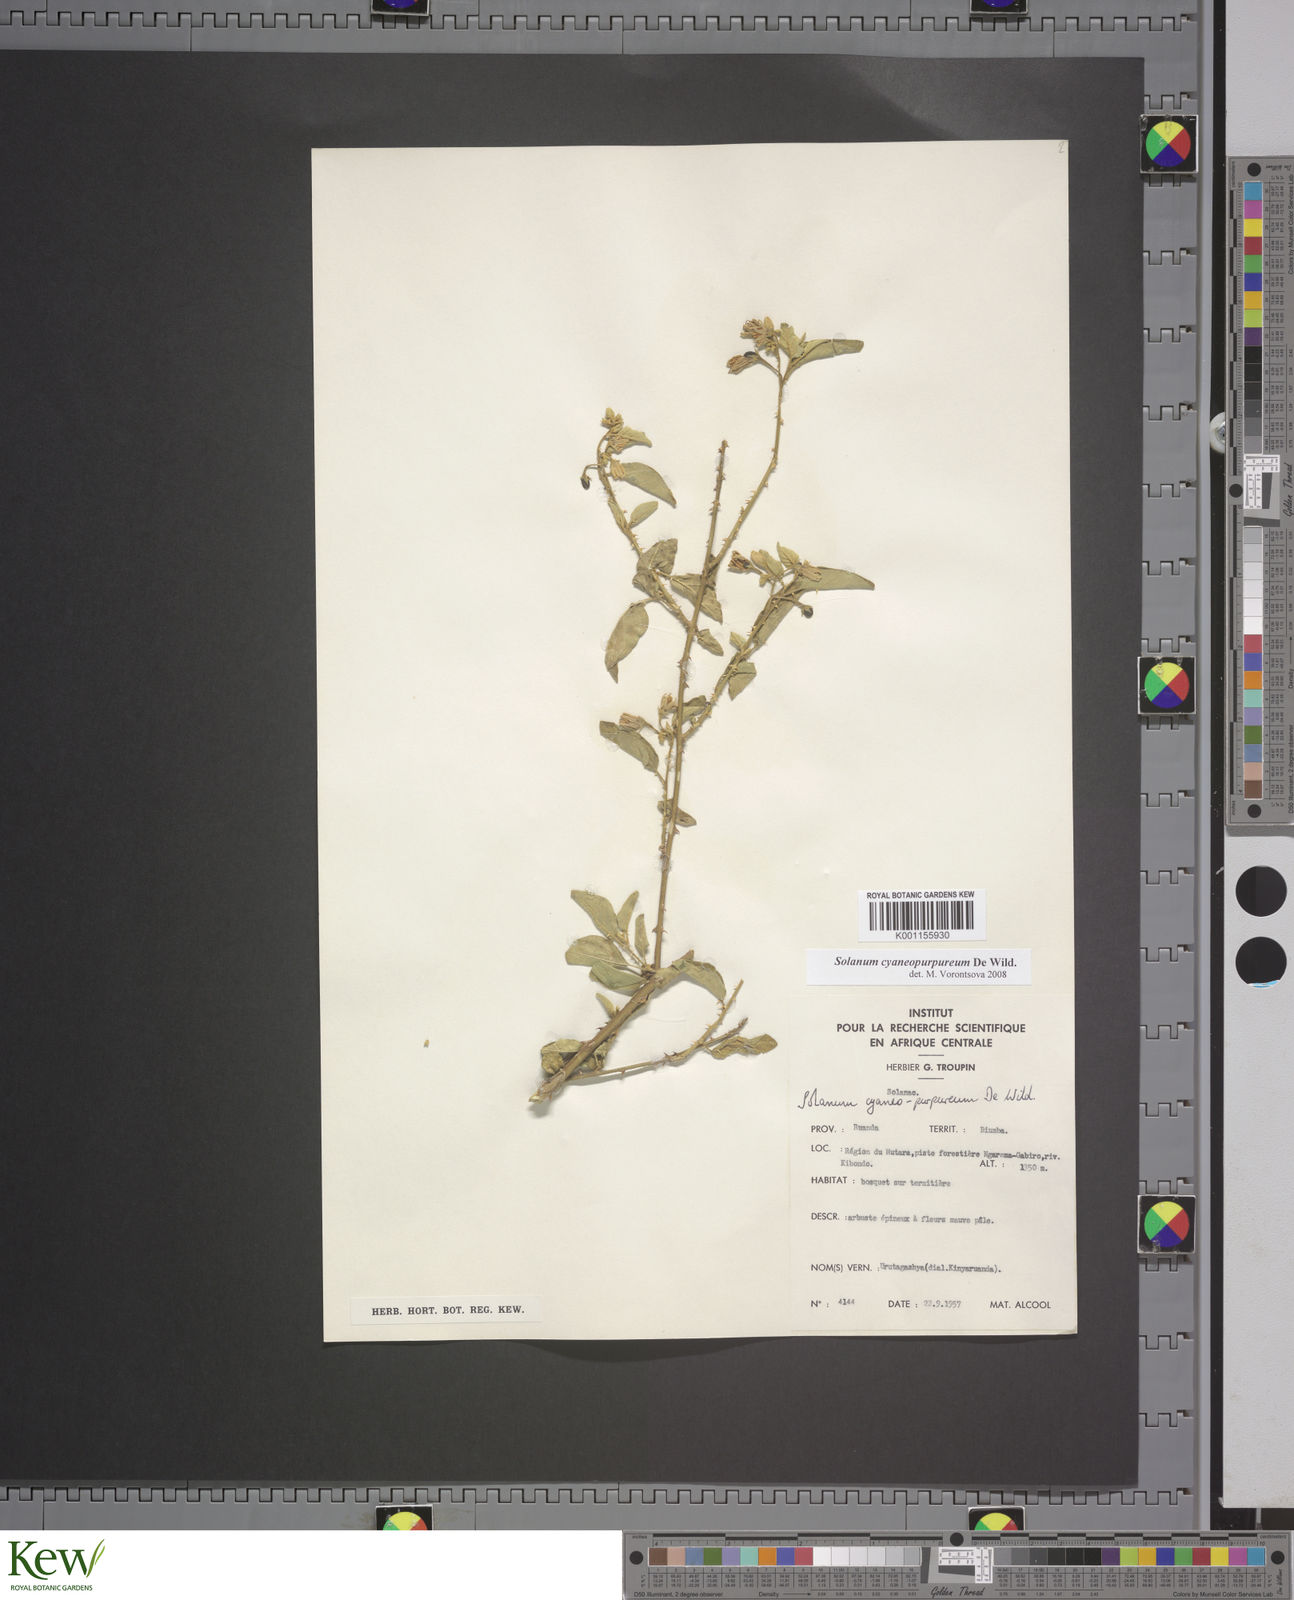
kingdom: Plantae
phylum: Tracheophyta
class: Magnoliopsida
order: Solanales
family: Solanaceae
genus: Solanum
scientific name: Solanum cyaneopurpureum
